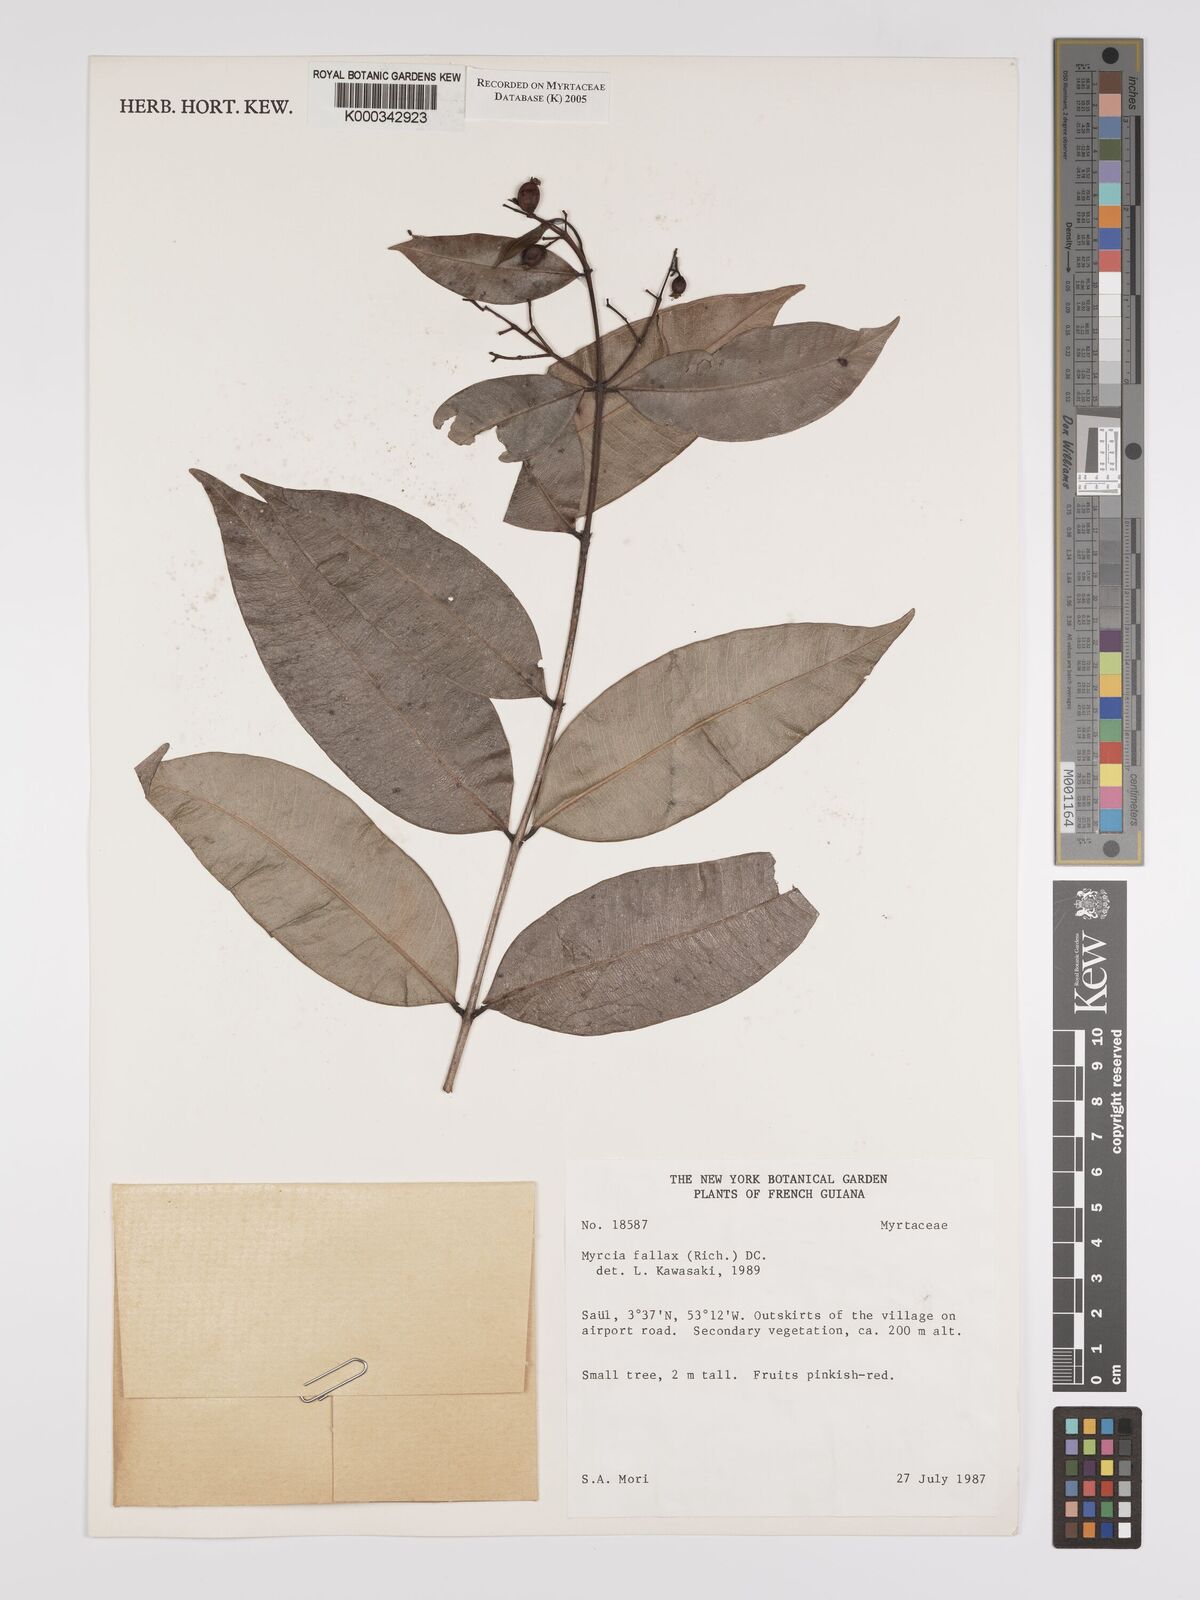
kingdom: Plantae
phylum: Tracheophyta
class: Magnoliopsida
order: Myrtales
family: Myrtaceae
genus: Myrcia
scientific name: Myrcia splendens
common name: Surinam cherry
